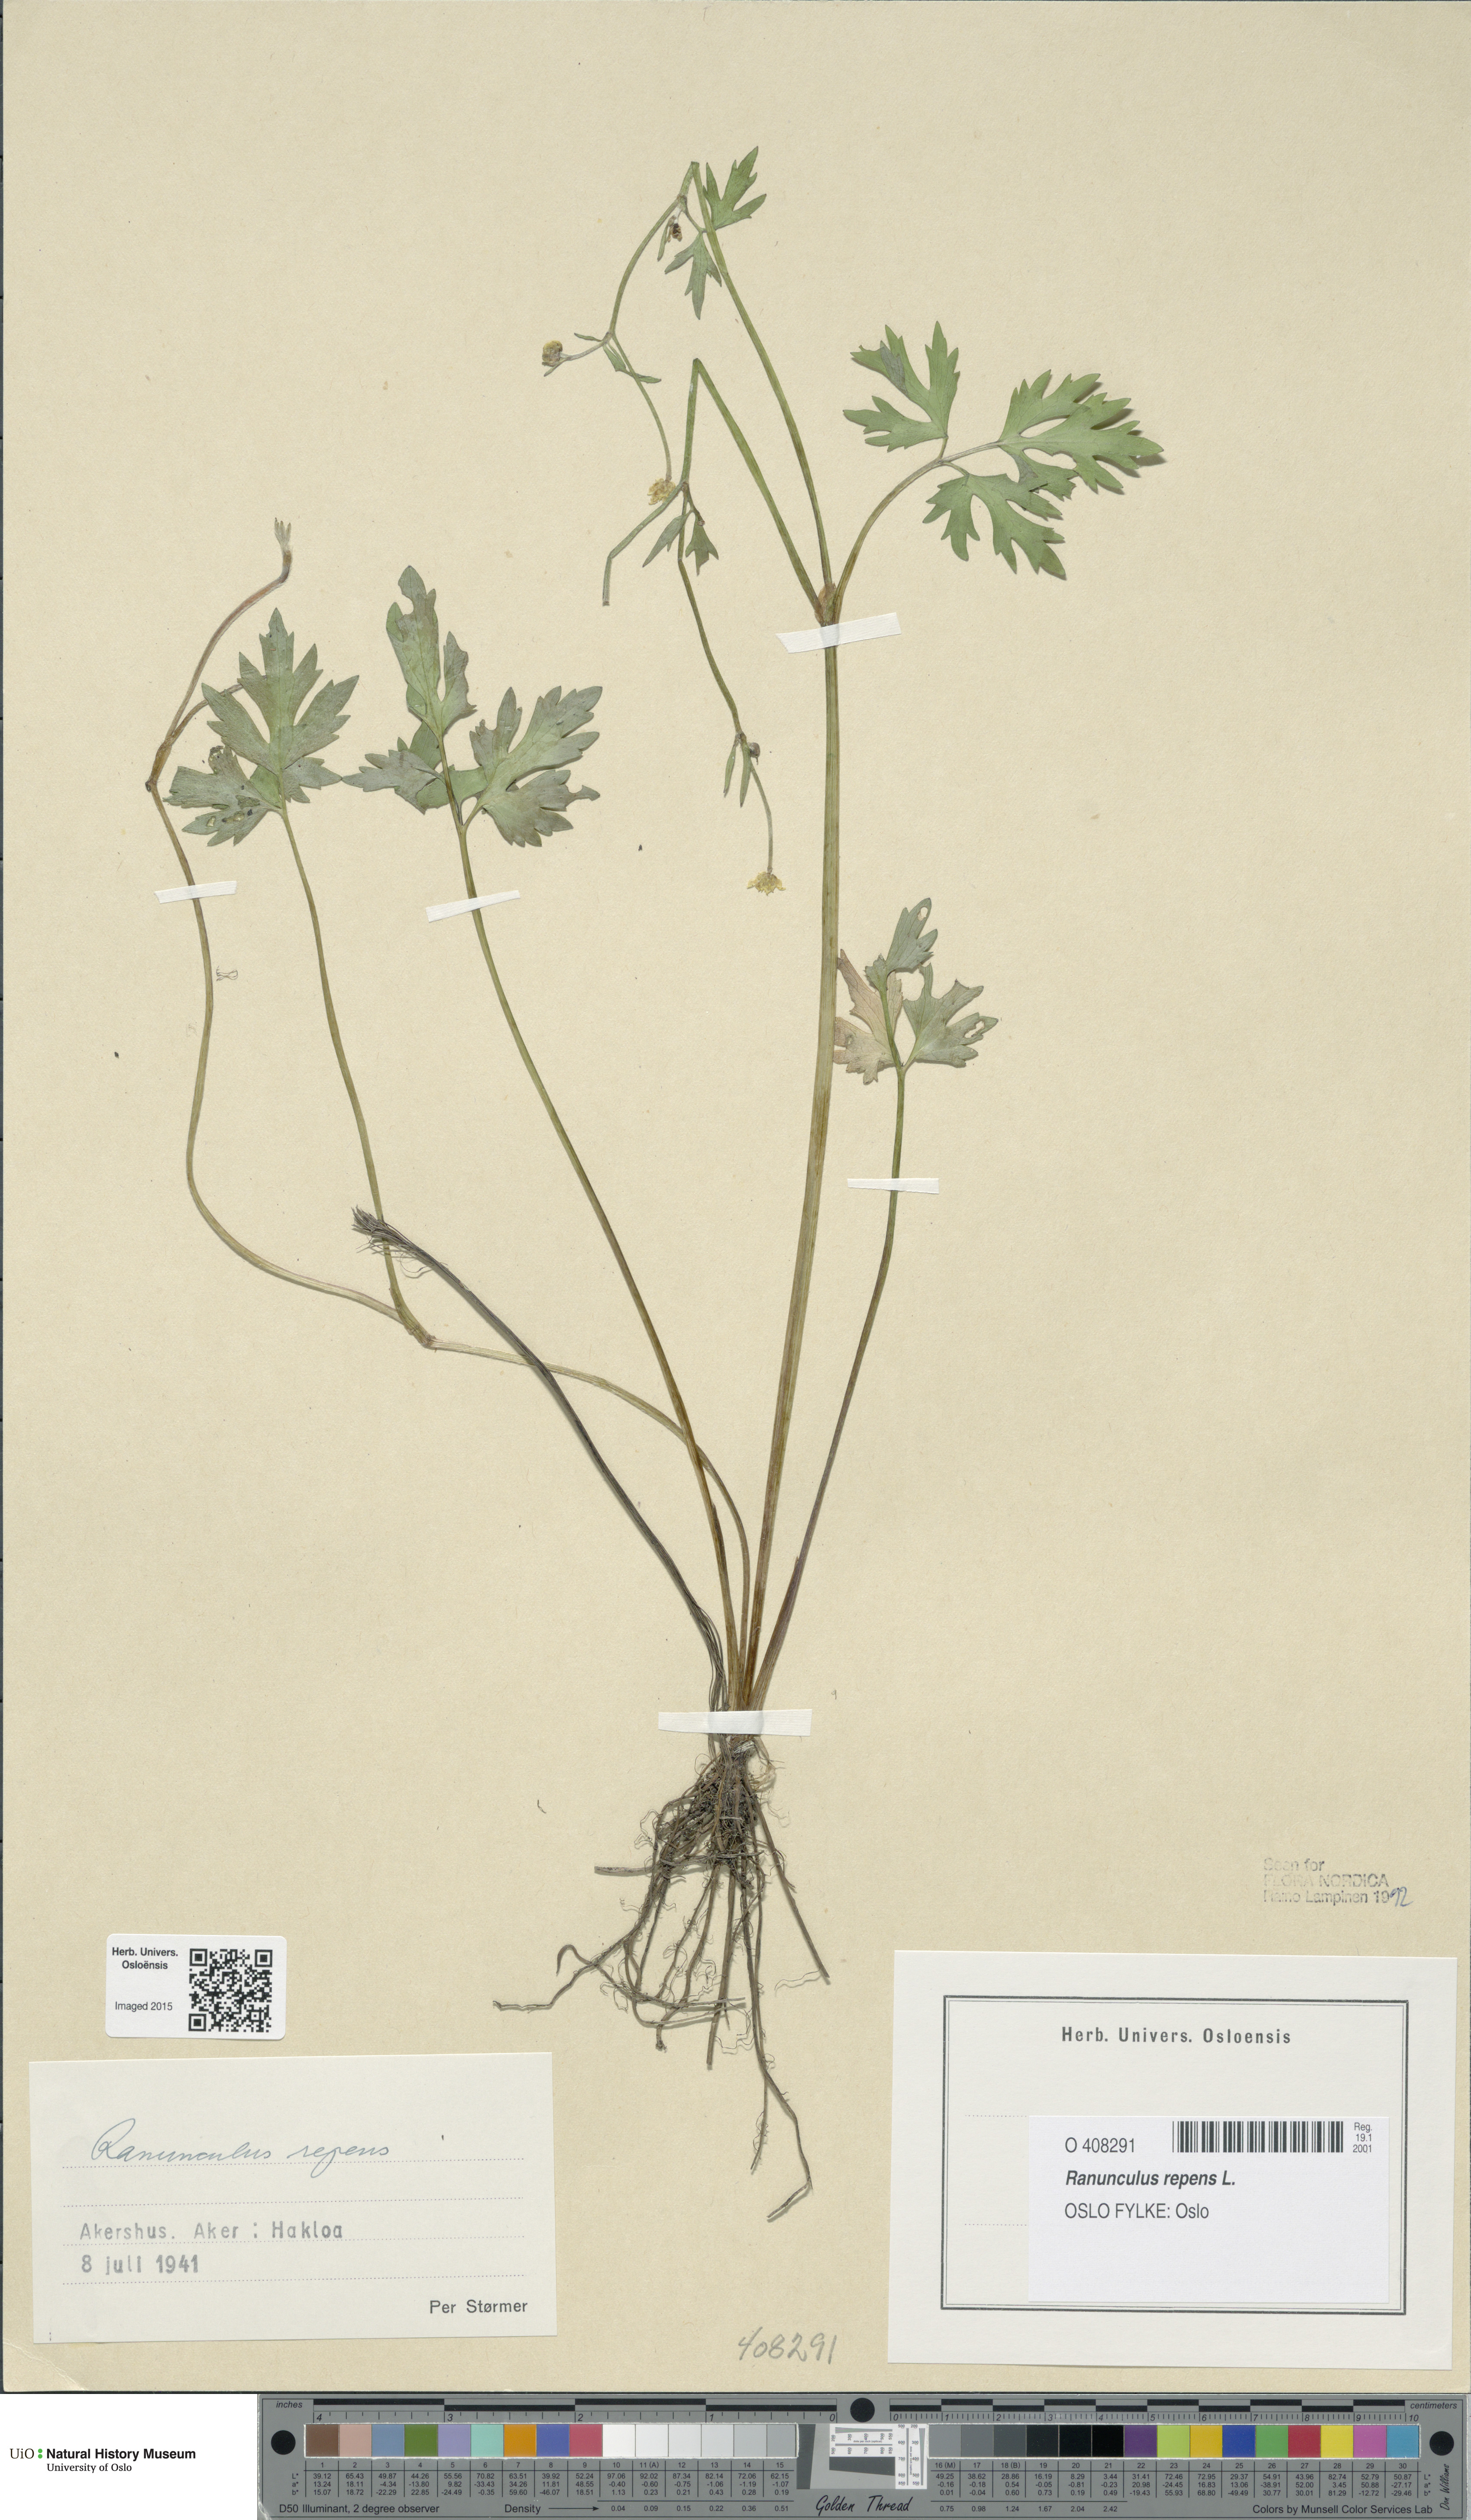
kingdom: Plantae
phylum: Tracheophyta
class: Magnoliopsida
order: Ranunculales
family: Ranunculaceae
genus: Ranunculus
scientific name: Ranunculus repens
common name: Creeping buttercup
